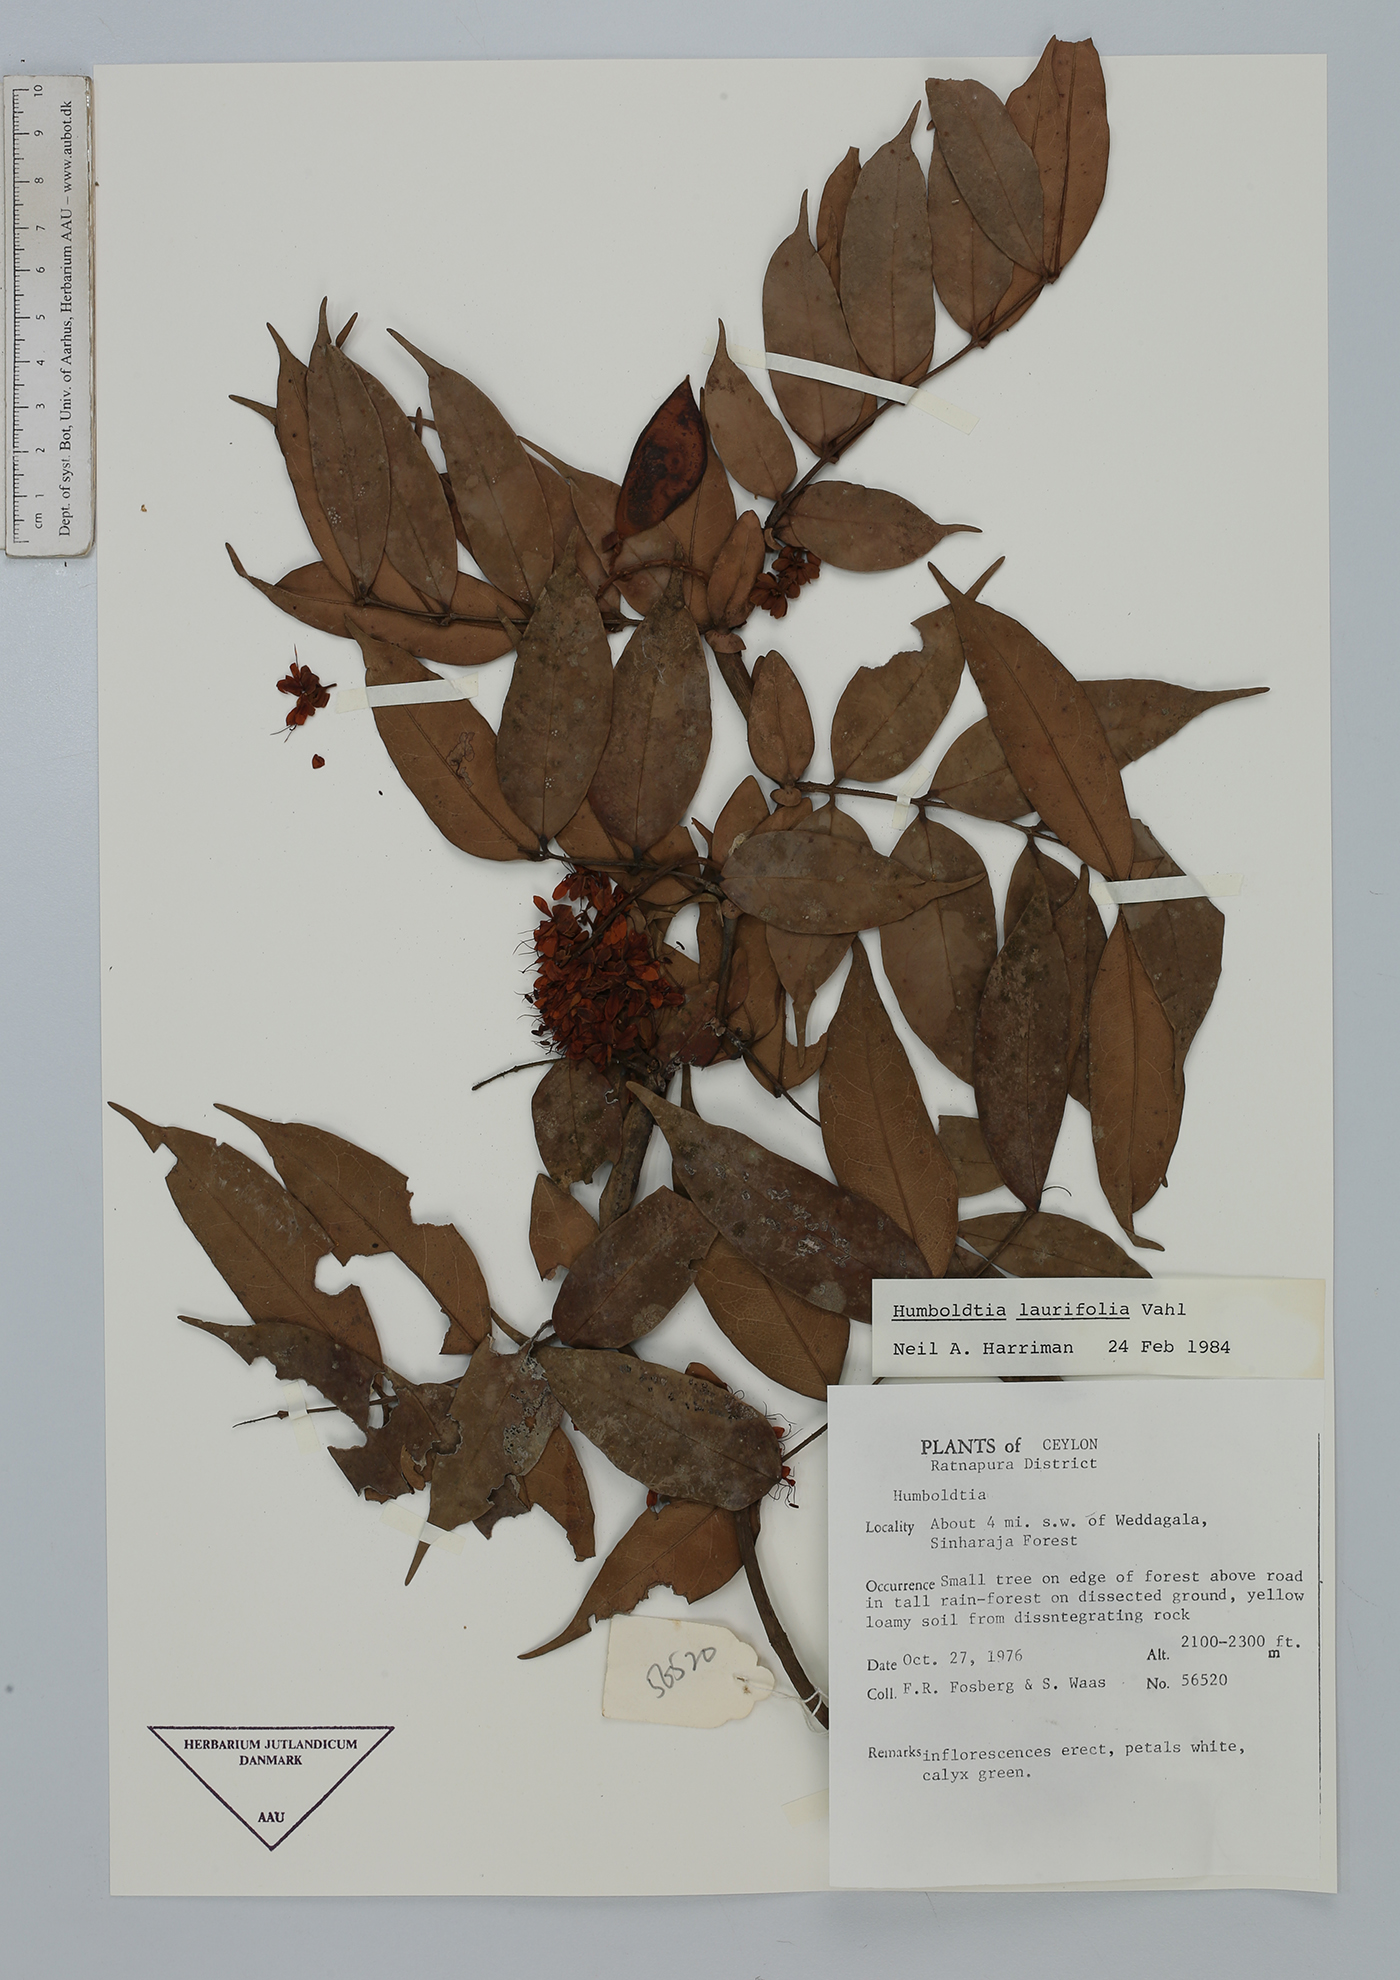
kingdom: Plantae
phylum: Tracheophyta
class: Magnoliopsida
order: Fabales
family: Fabaceae
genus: Humboldtia
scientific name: Humboldtia laurifolia
